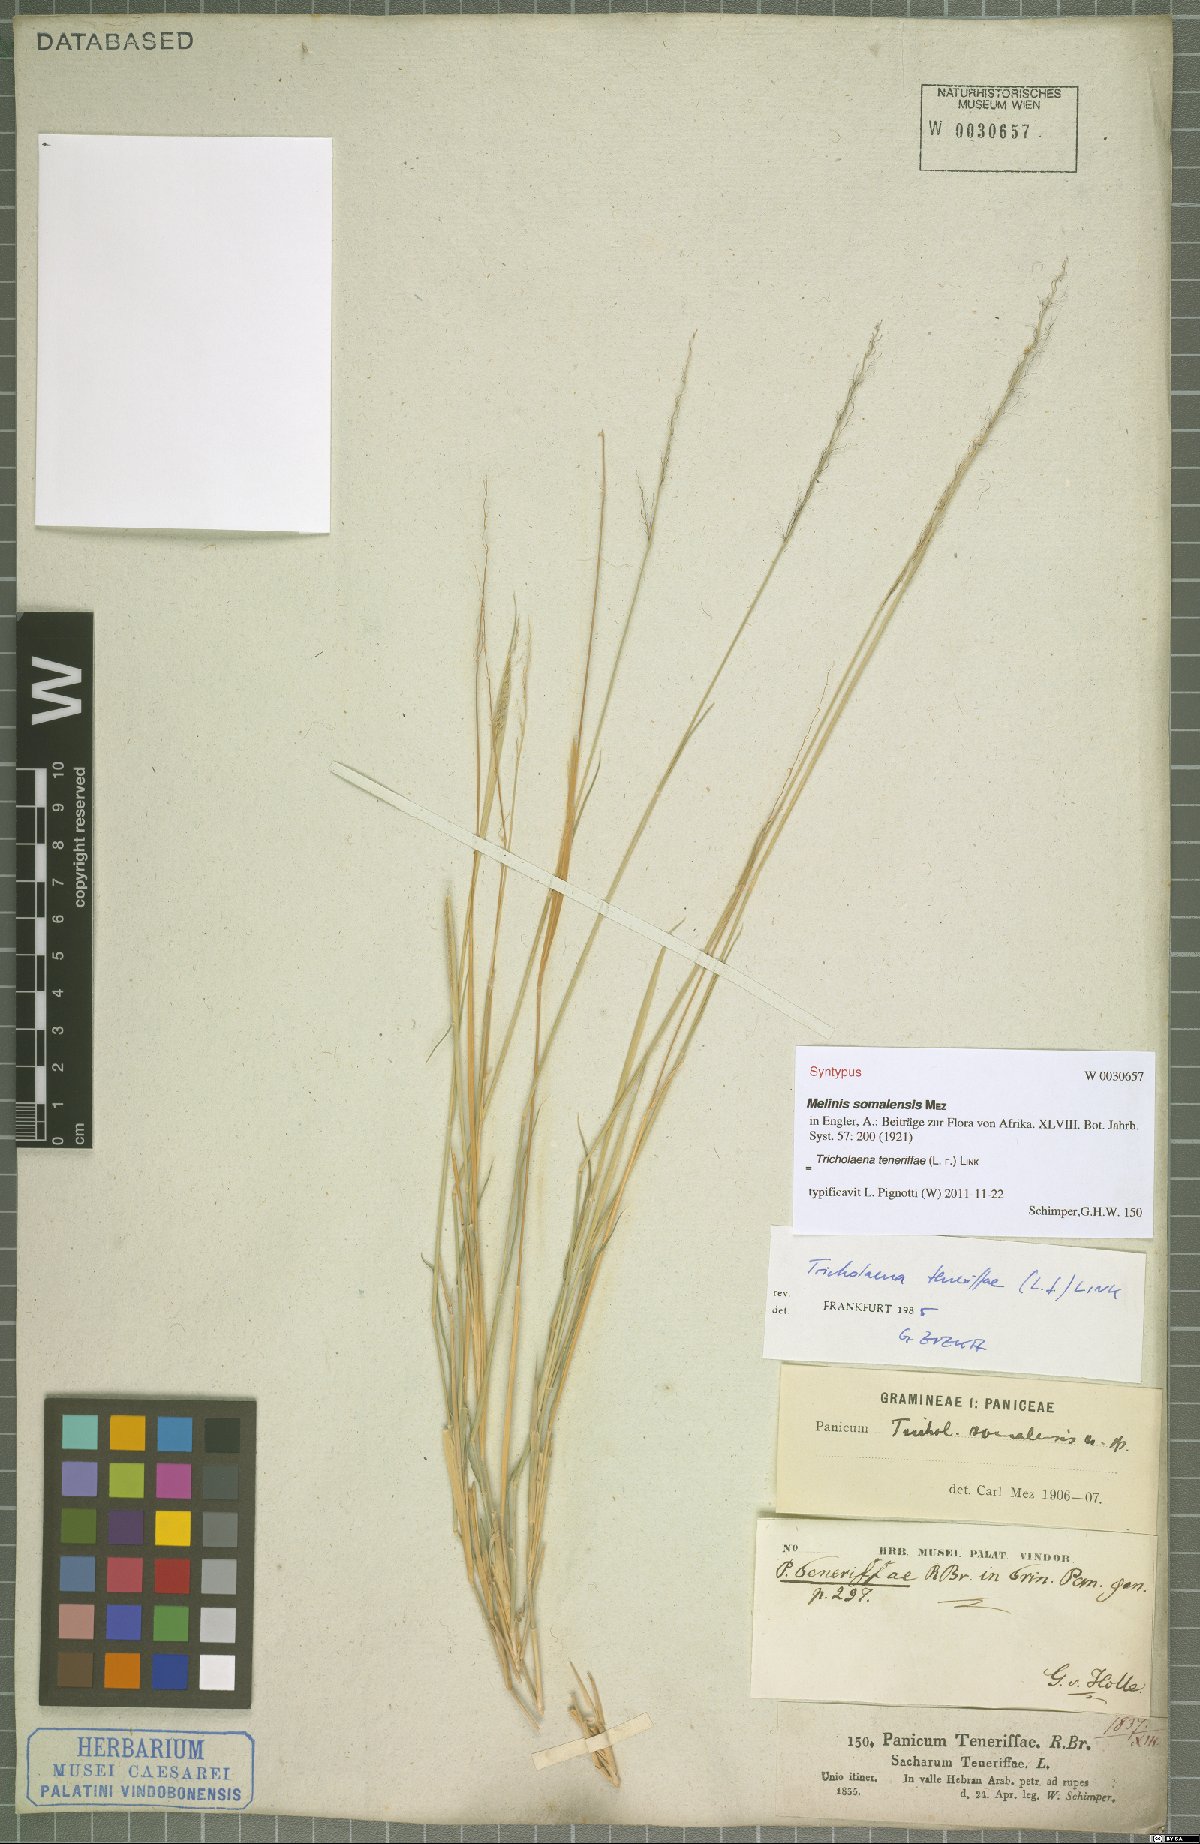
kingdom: Plantae
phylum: Tracheophyta
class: Liliopsida
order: Poales
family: Poaceae
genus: Tricholaena
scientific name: Tricholaena teneriffae
